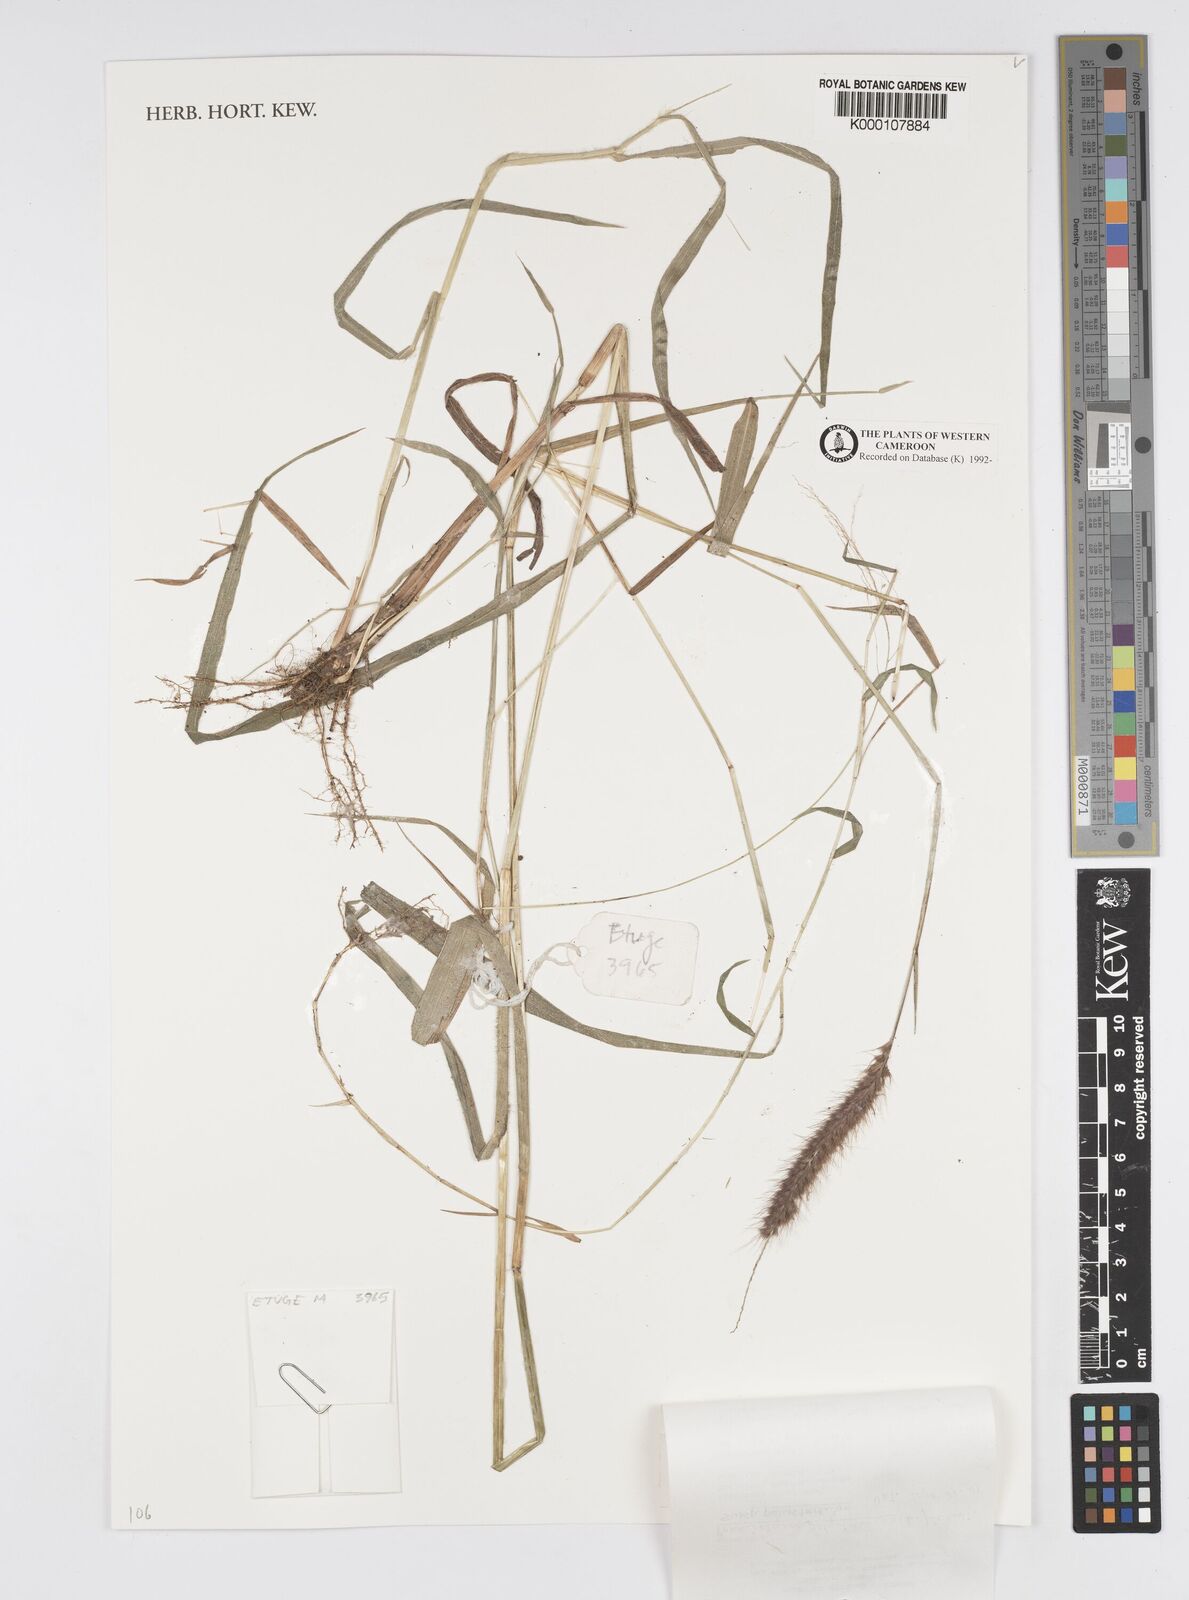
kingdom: Plantae
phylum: Tracheophyta
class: Liliopsida
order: Poales
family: Poaceae
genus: Setaria
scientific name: Setaria parviflora
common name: Knotroot bristle-grass
